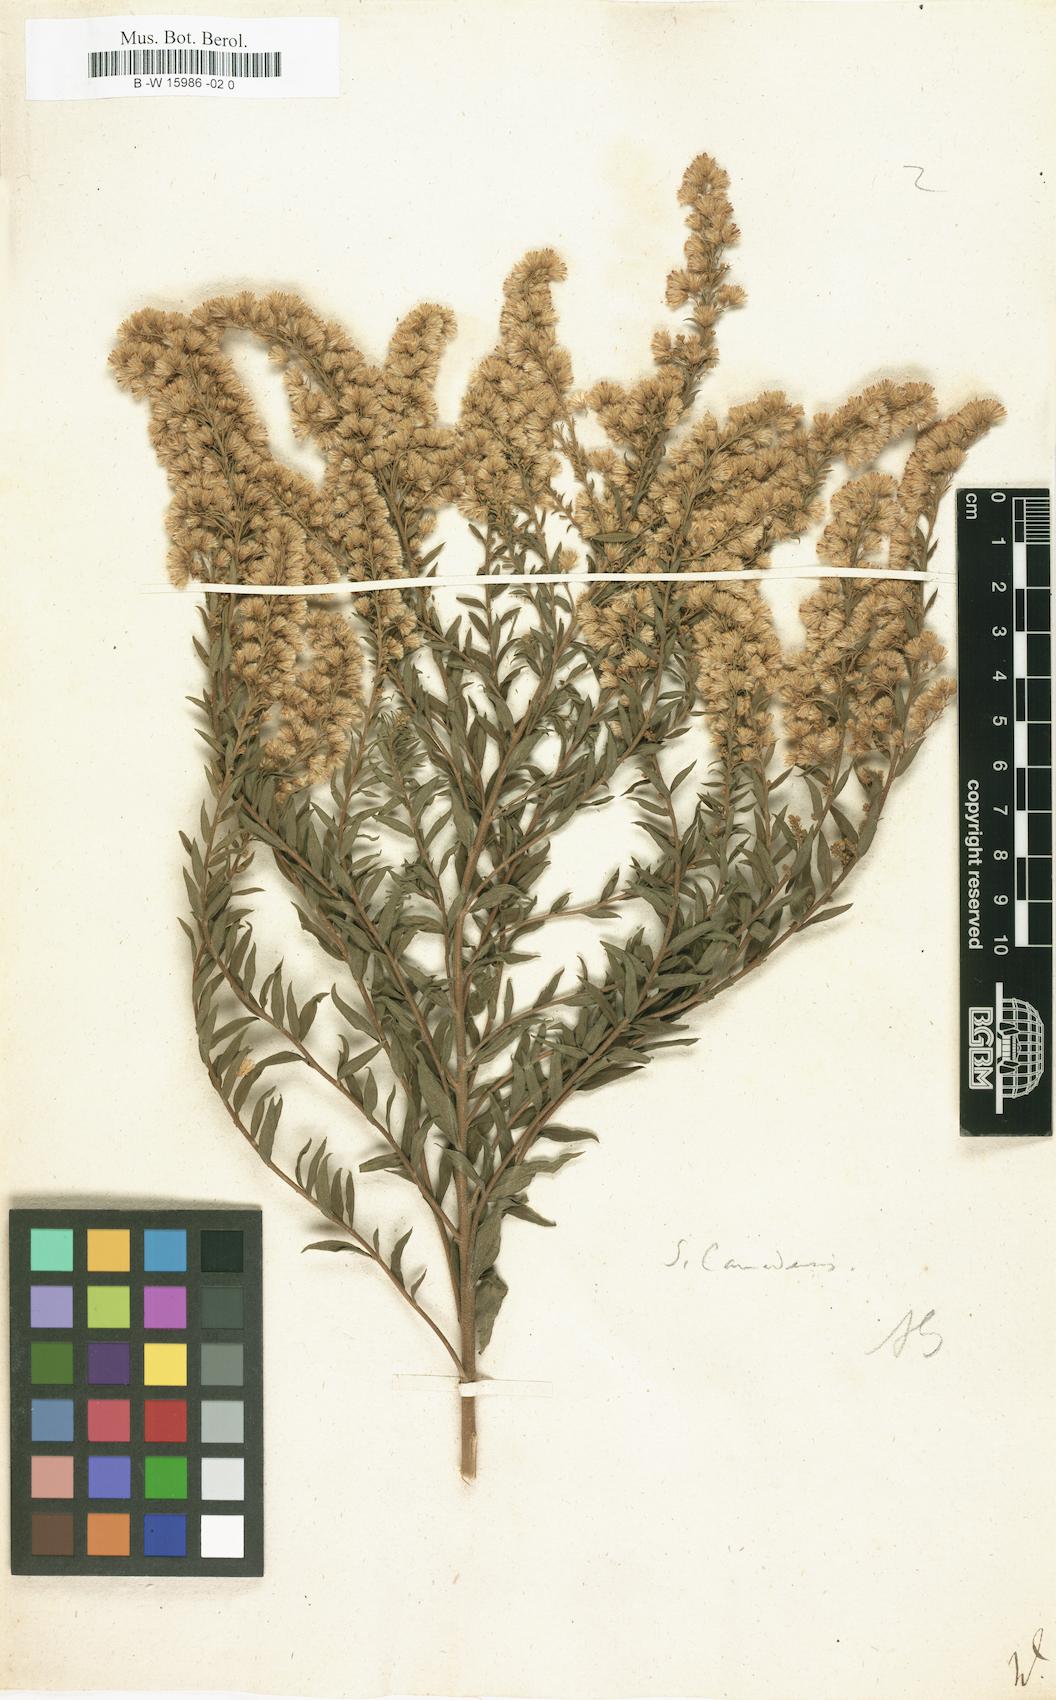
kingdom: Plantae
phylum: Tracheophyta
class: Magnoliopsida
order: Asterales
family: Asteraceae
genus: Solidago
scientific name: Solidago
